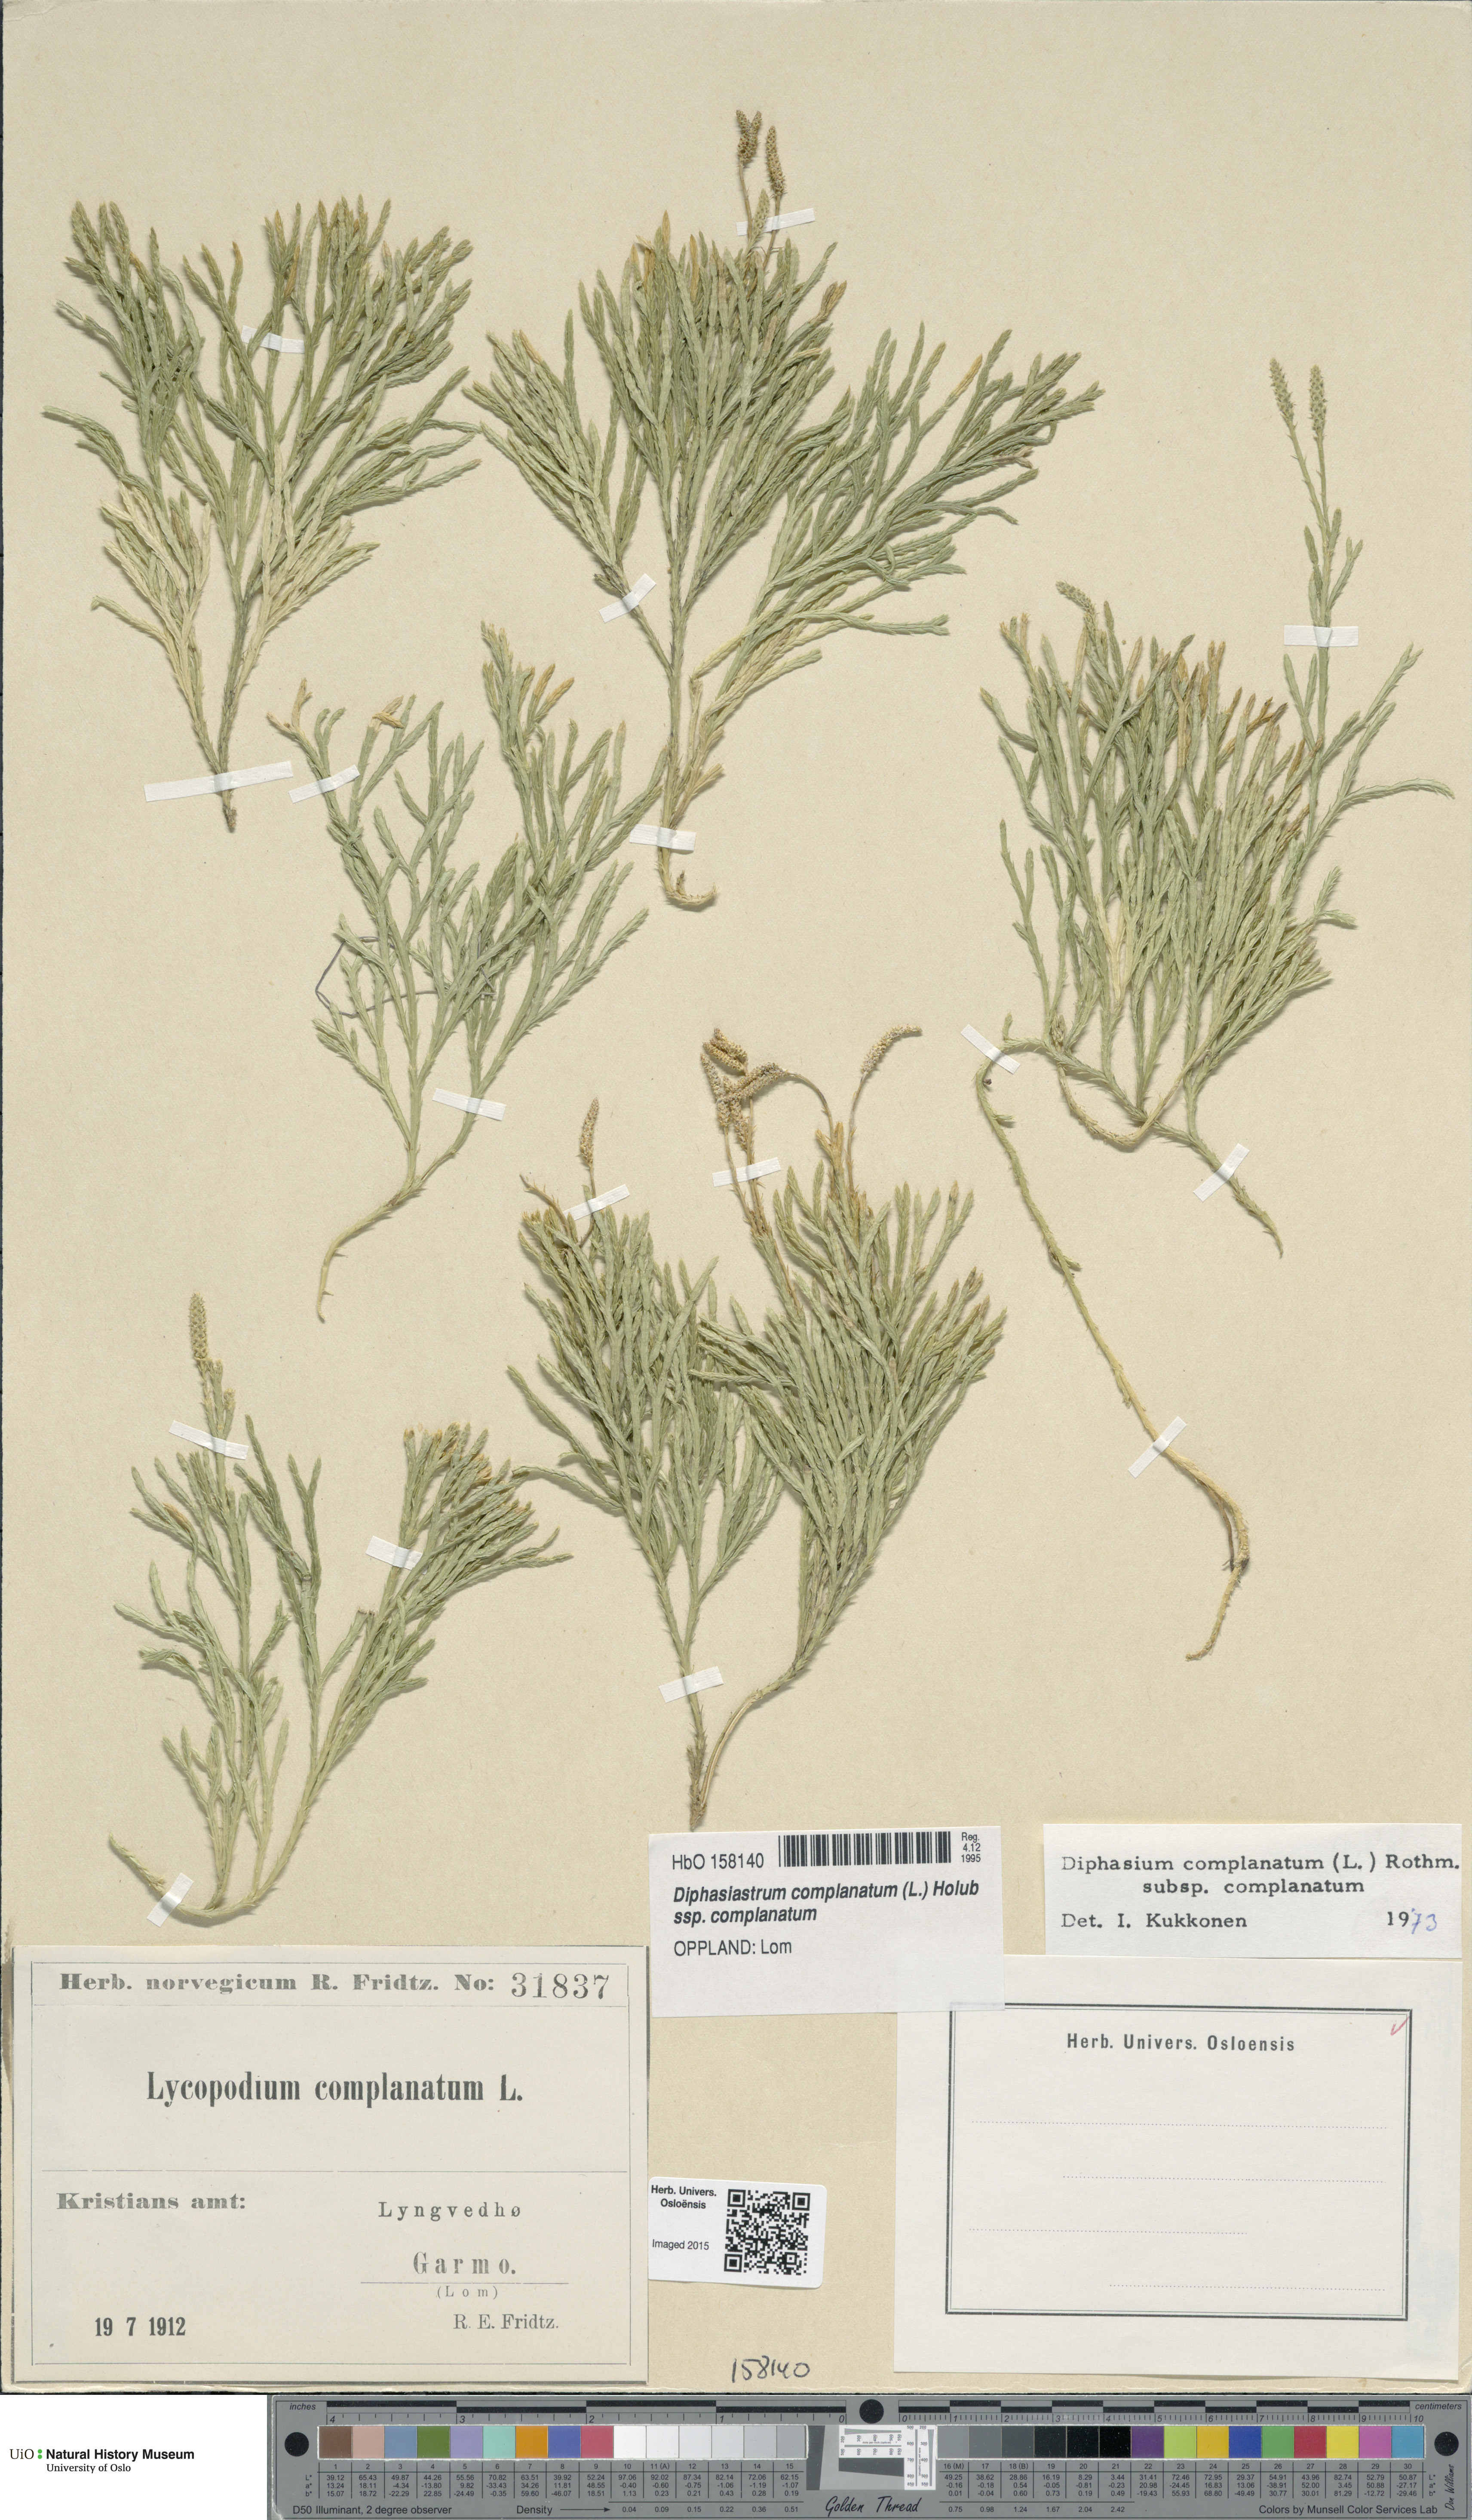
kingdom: Plantae
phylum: Tracheophyta
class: Lycopodiopsida
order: Lycopodiales
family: Lycopodiaceae
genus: Diphasiastrum
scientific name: Diphasiastrum complanatum
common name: Northern running-pine
